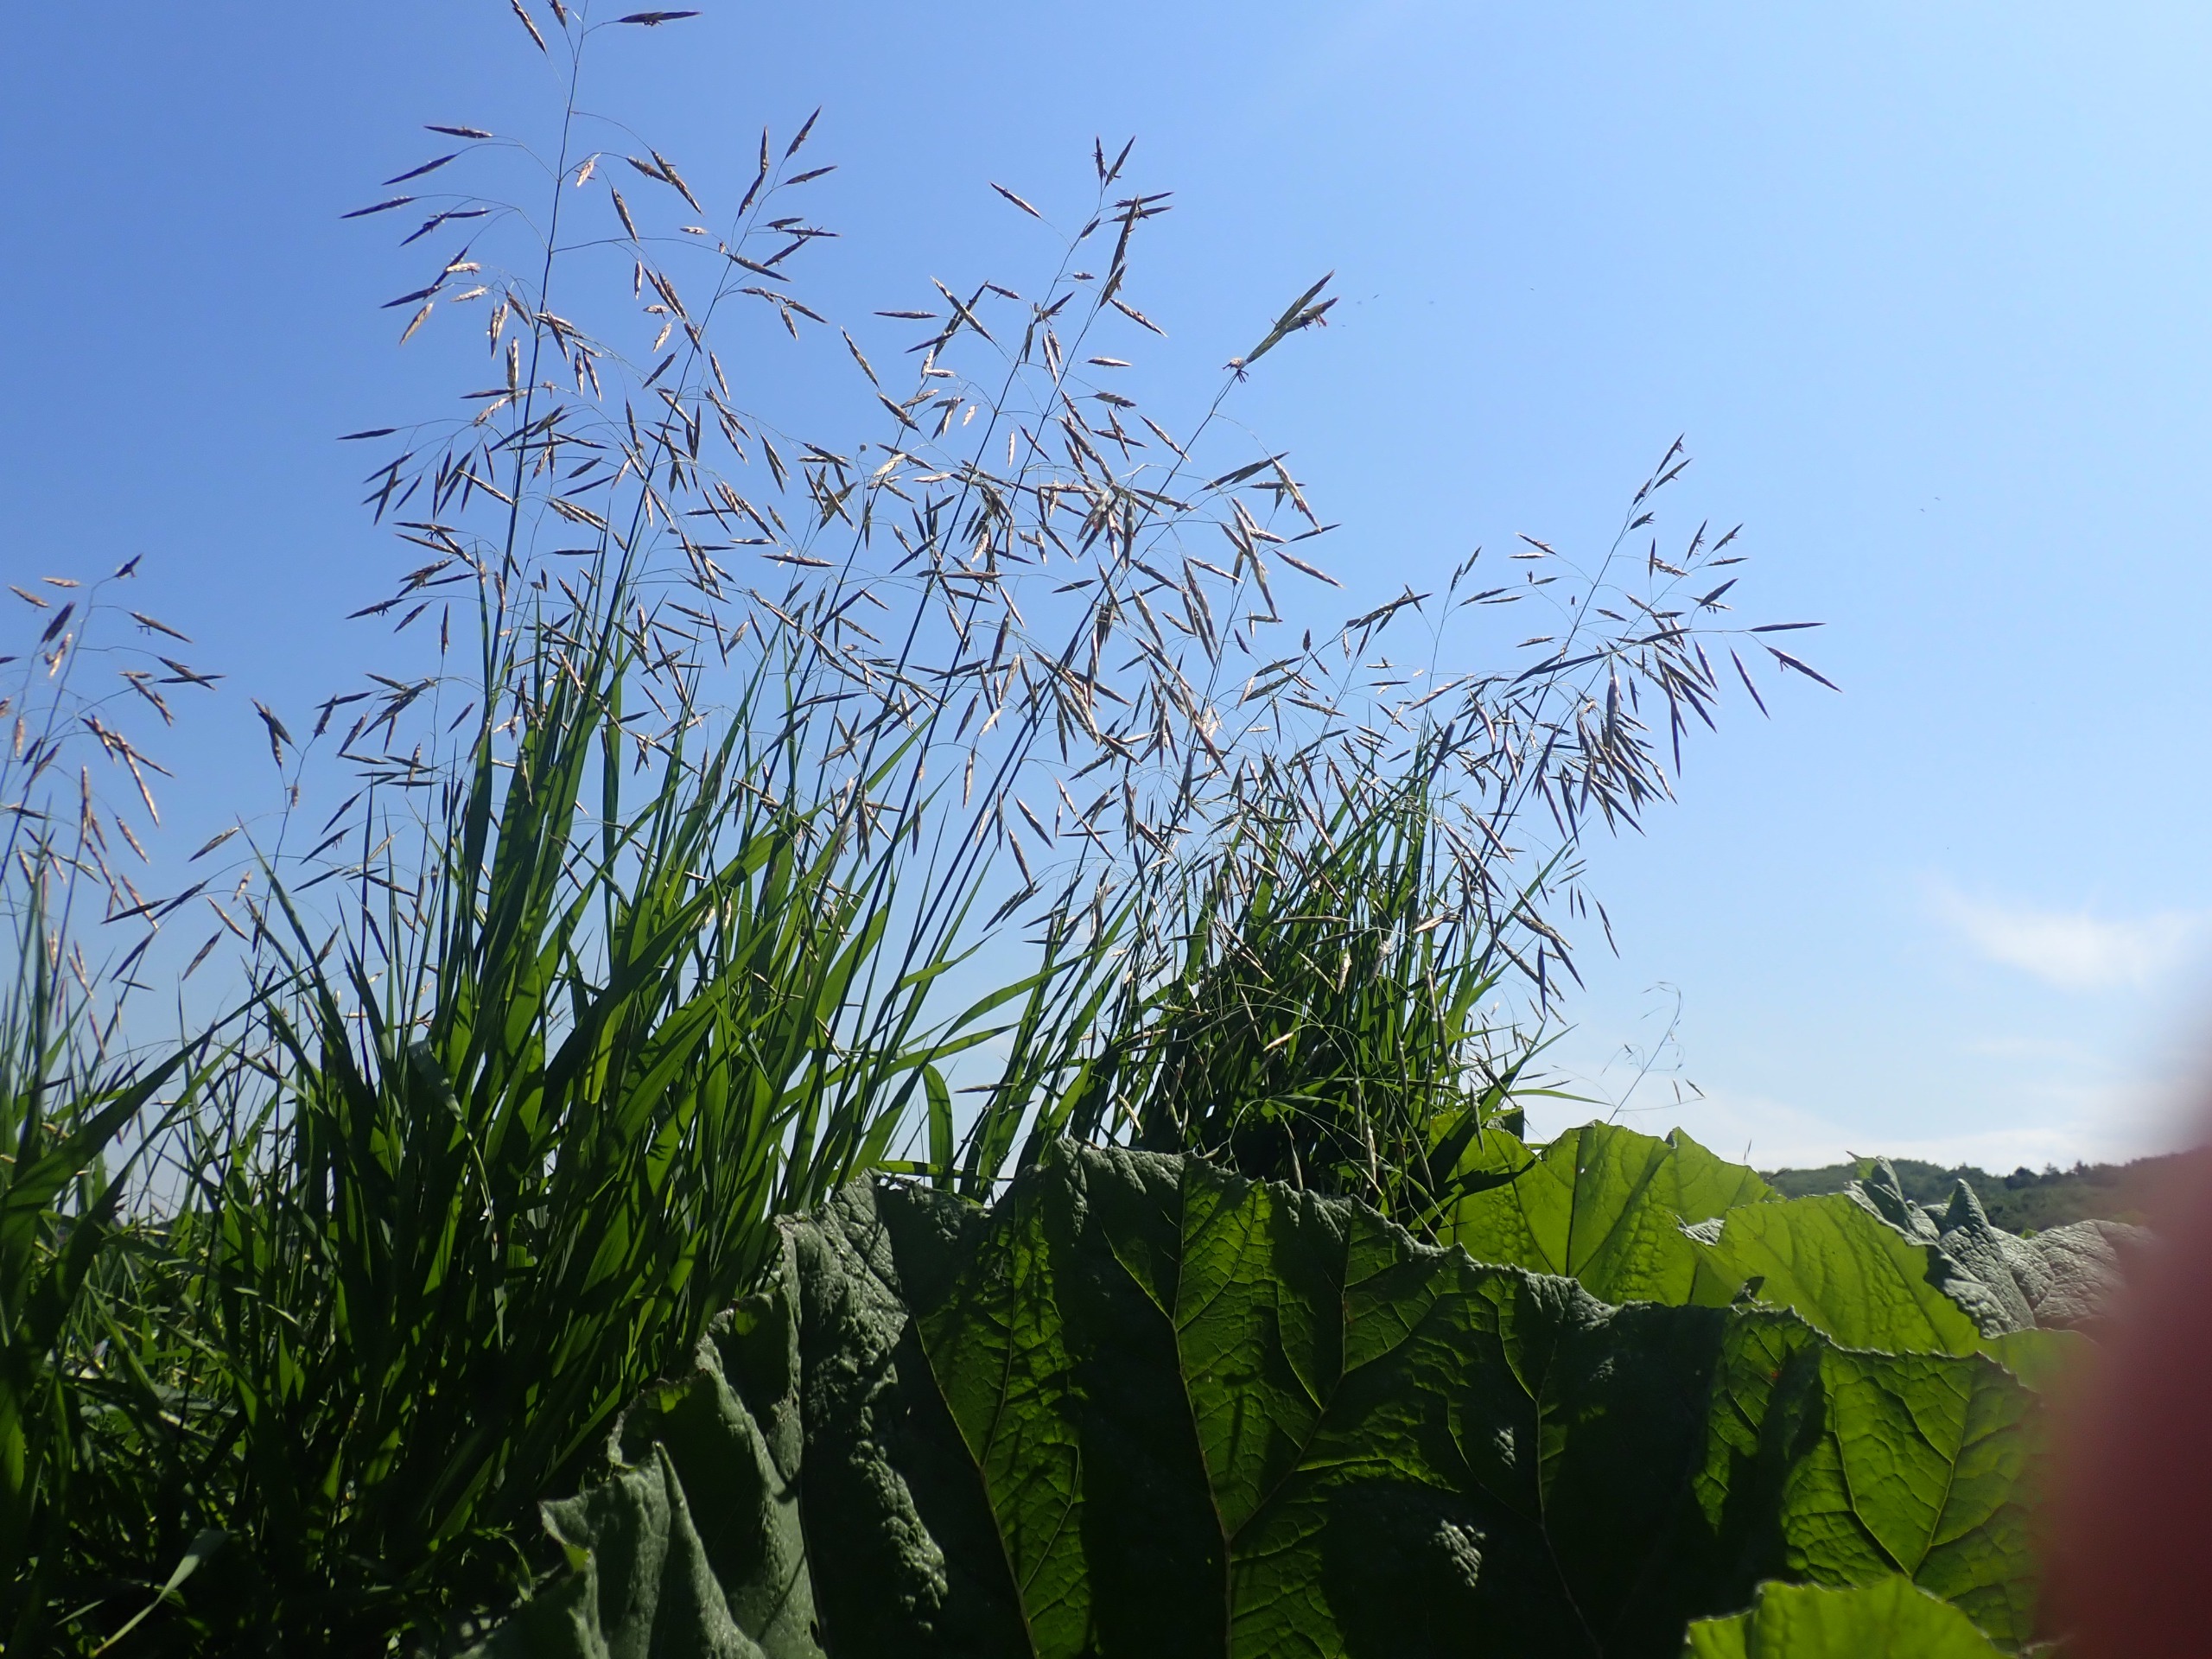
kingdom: Plantae
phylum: Tracheophyta
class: Liliopsida
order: Poales
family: Poaceae
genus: Bromus
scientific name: Bromus inermis
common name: Stakløs hejre
